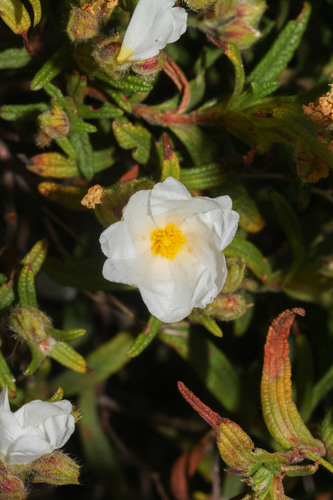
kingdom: Plantae
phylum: Tracheophyta
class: Magnoliopsida
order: Malvales
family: Cistaceae
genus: Cistus
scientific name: Cistus monspeliensis
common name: Montpelier cistus
